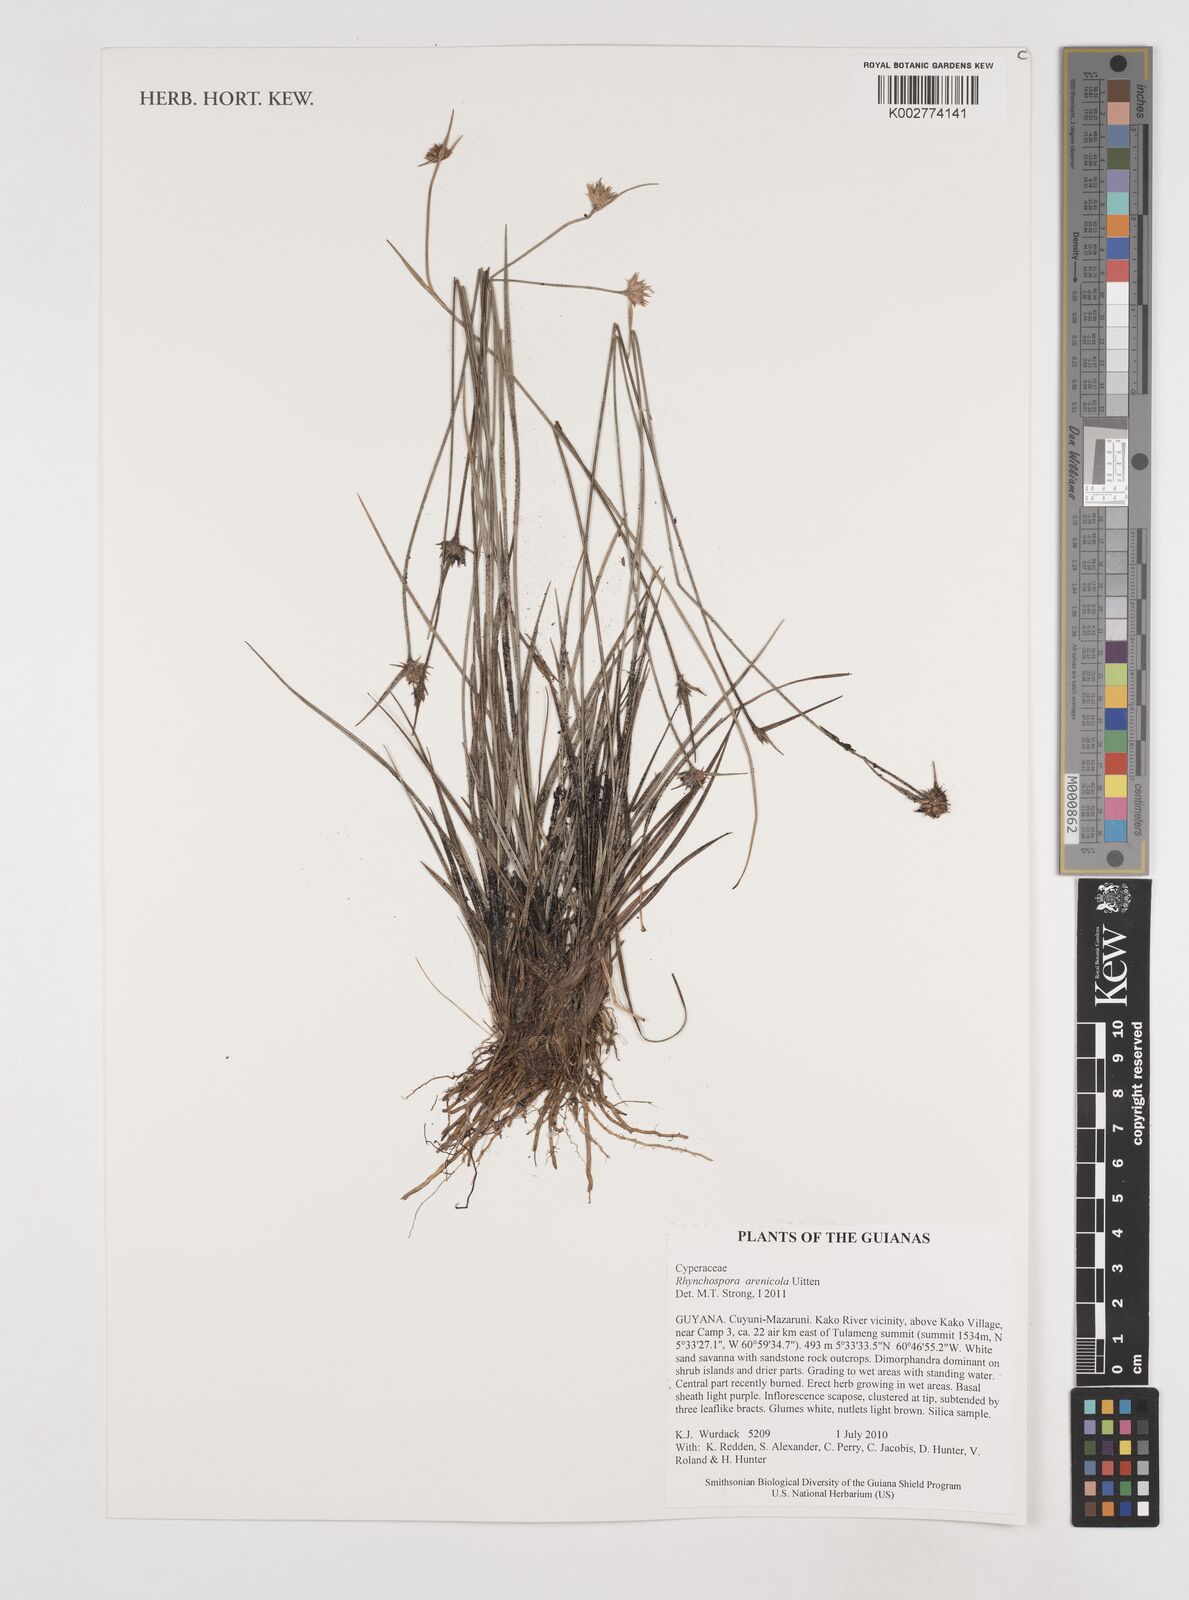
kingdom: Plantae
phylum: Tracheophyta
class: Liliopsida
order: Poales
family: Cyperaceae
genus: Rhynchospora
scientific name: Rhynchospora arenicola
